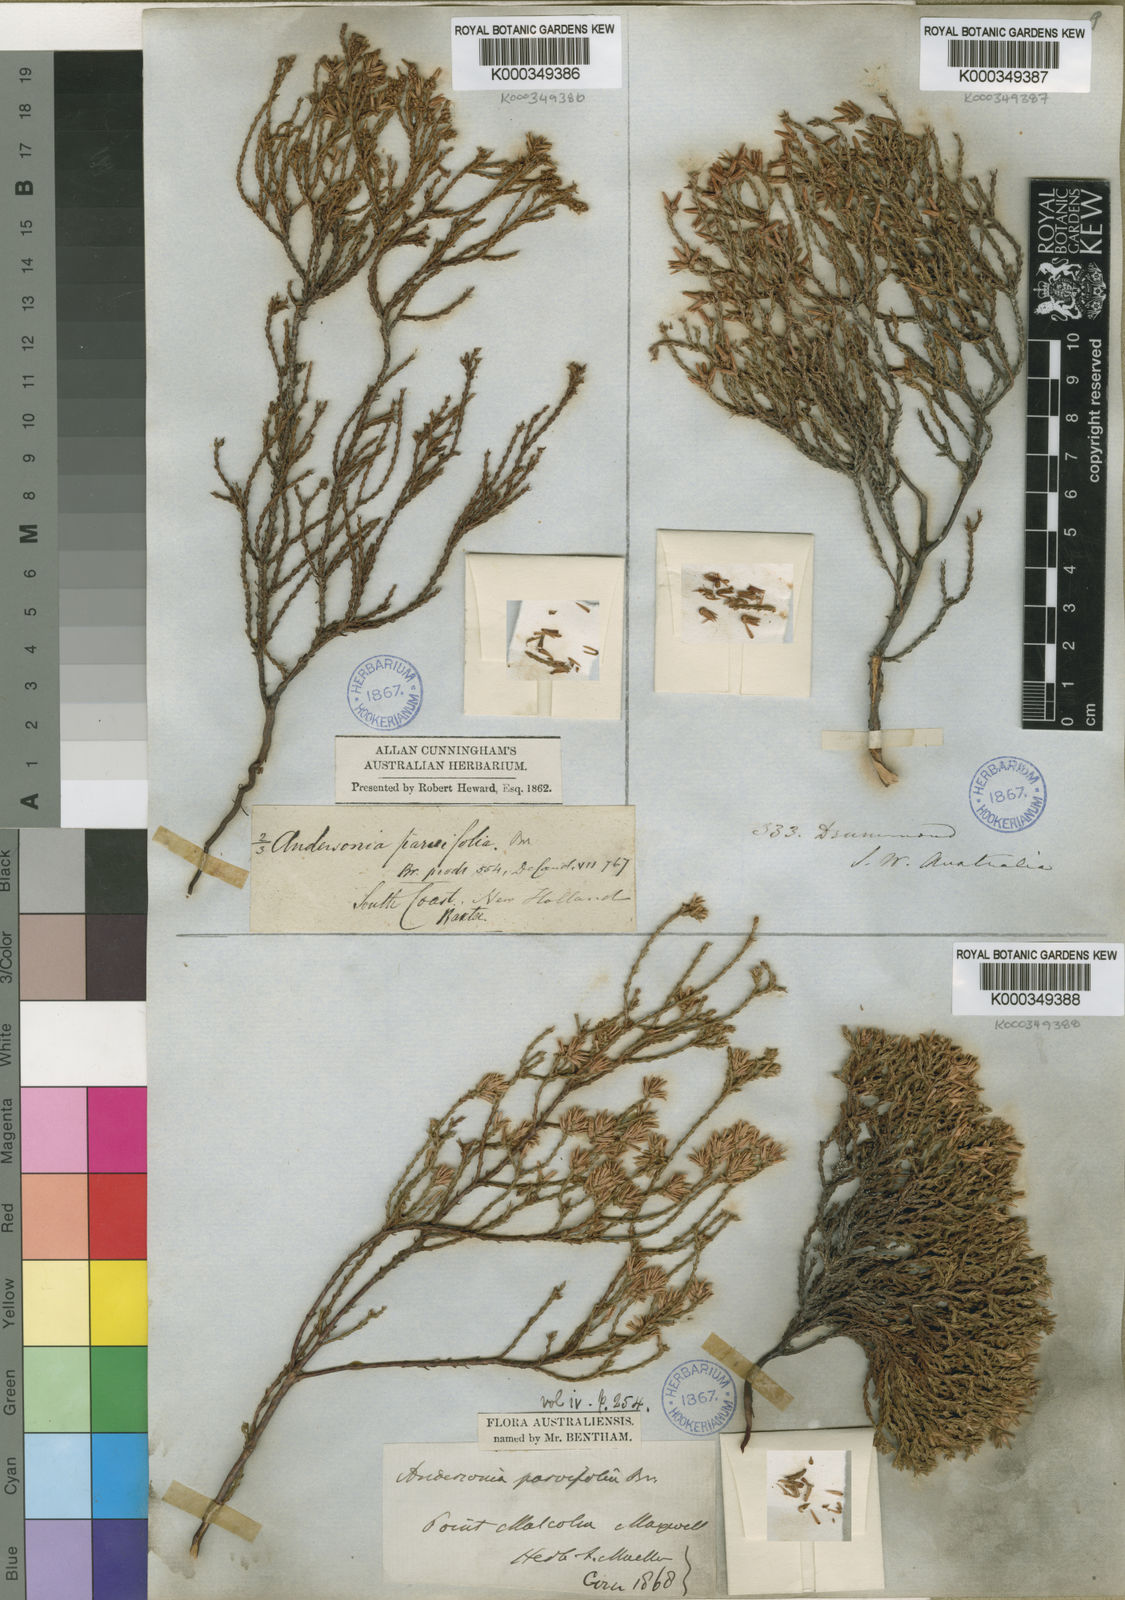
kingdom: Plantae
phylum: Tracheophyta
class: Magnoliopsida
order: Ericales
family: Ericaceae
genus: Andersonia
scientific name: Andersonia parvifolia
